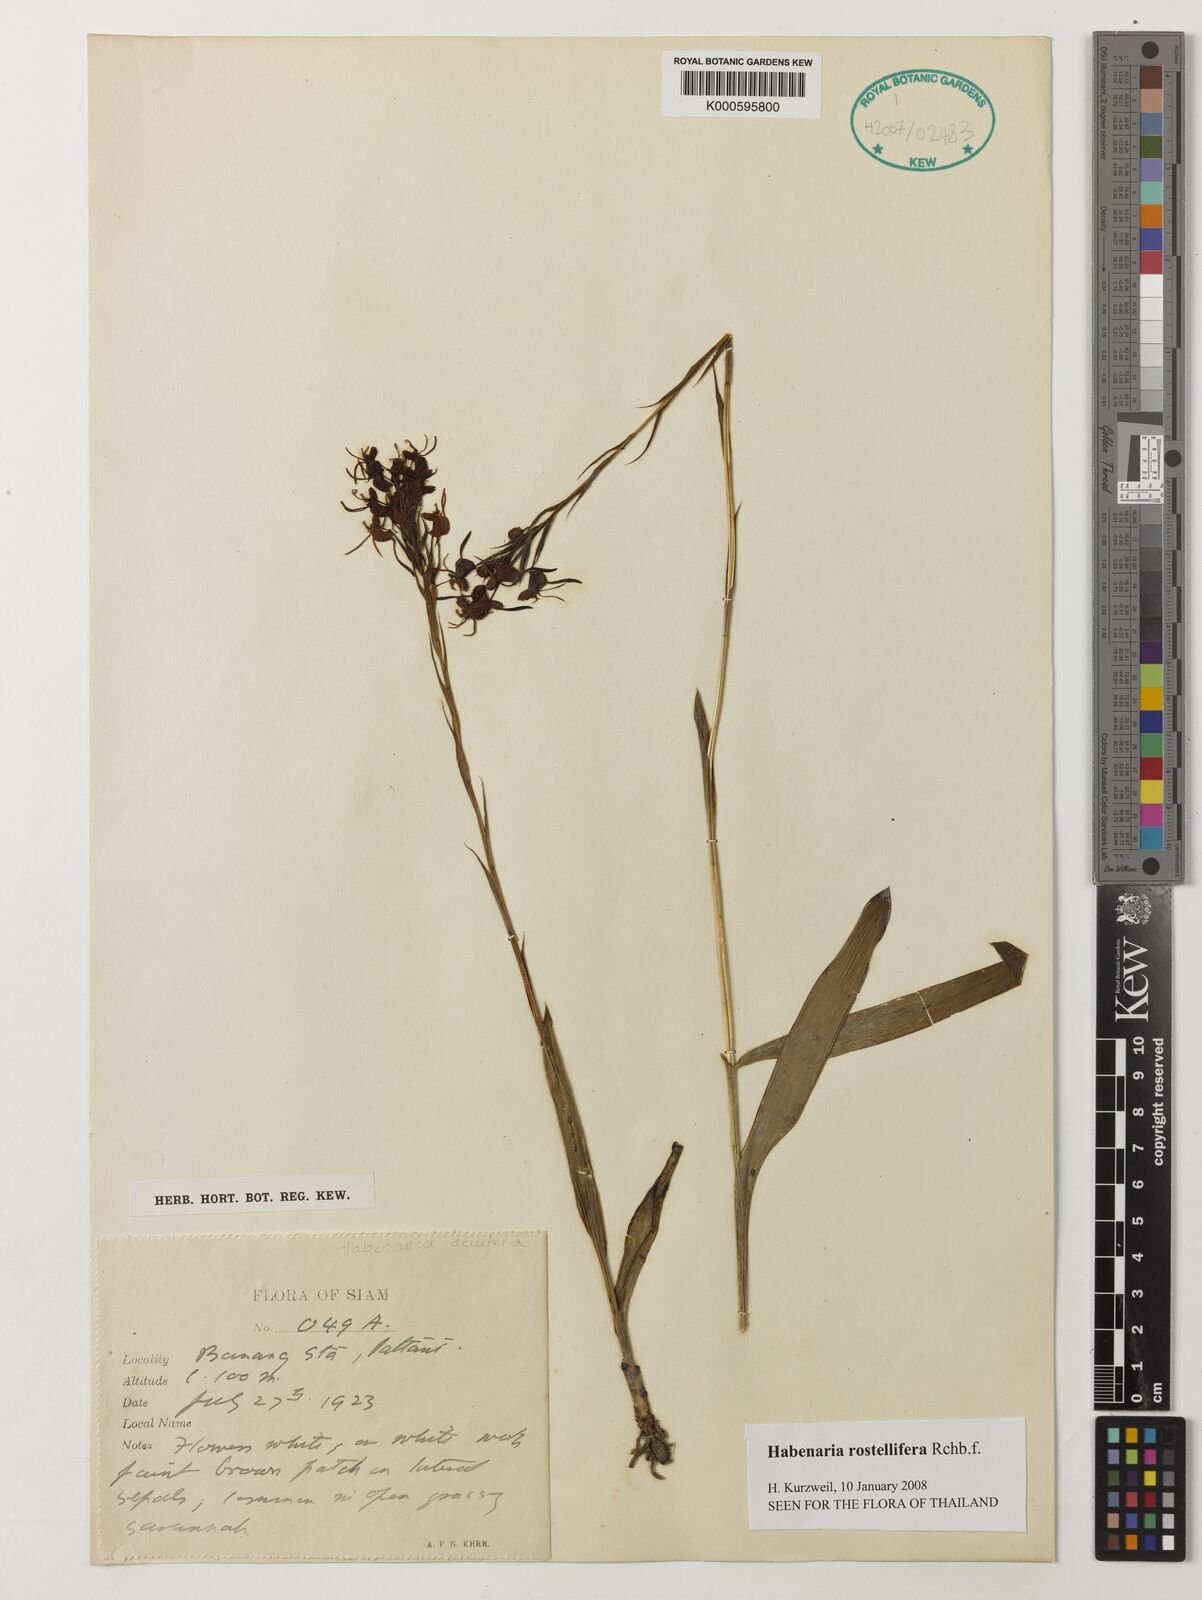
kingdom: Plantae
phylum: Tracheophyta
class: Liliopsida
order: Asparagales
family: Orchidaceae
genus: Habenaria
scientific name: Habenaria rostellifera
